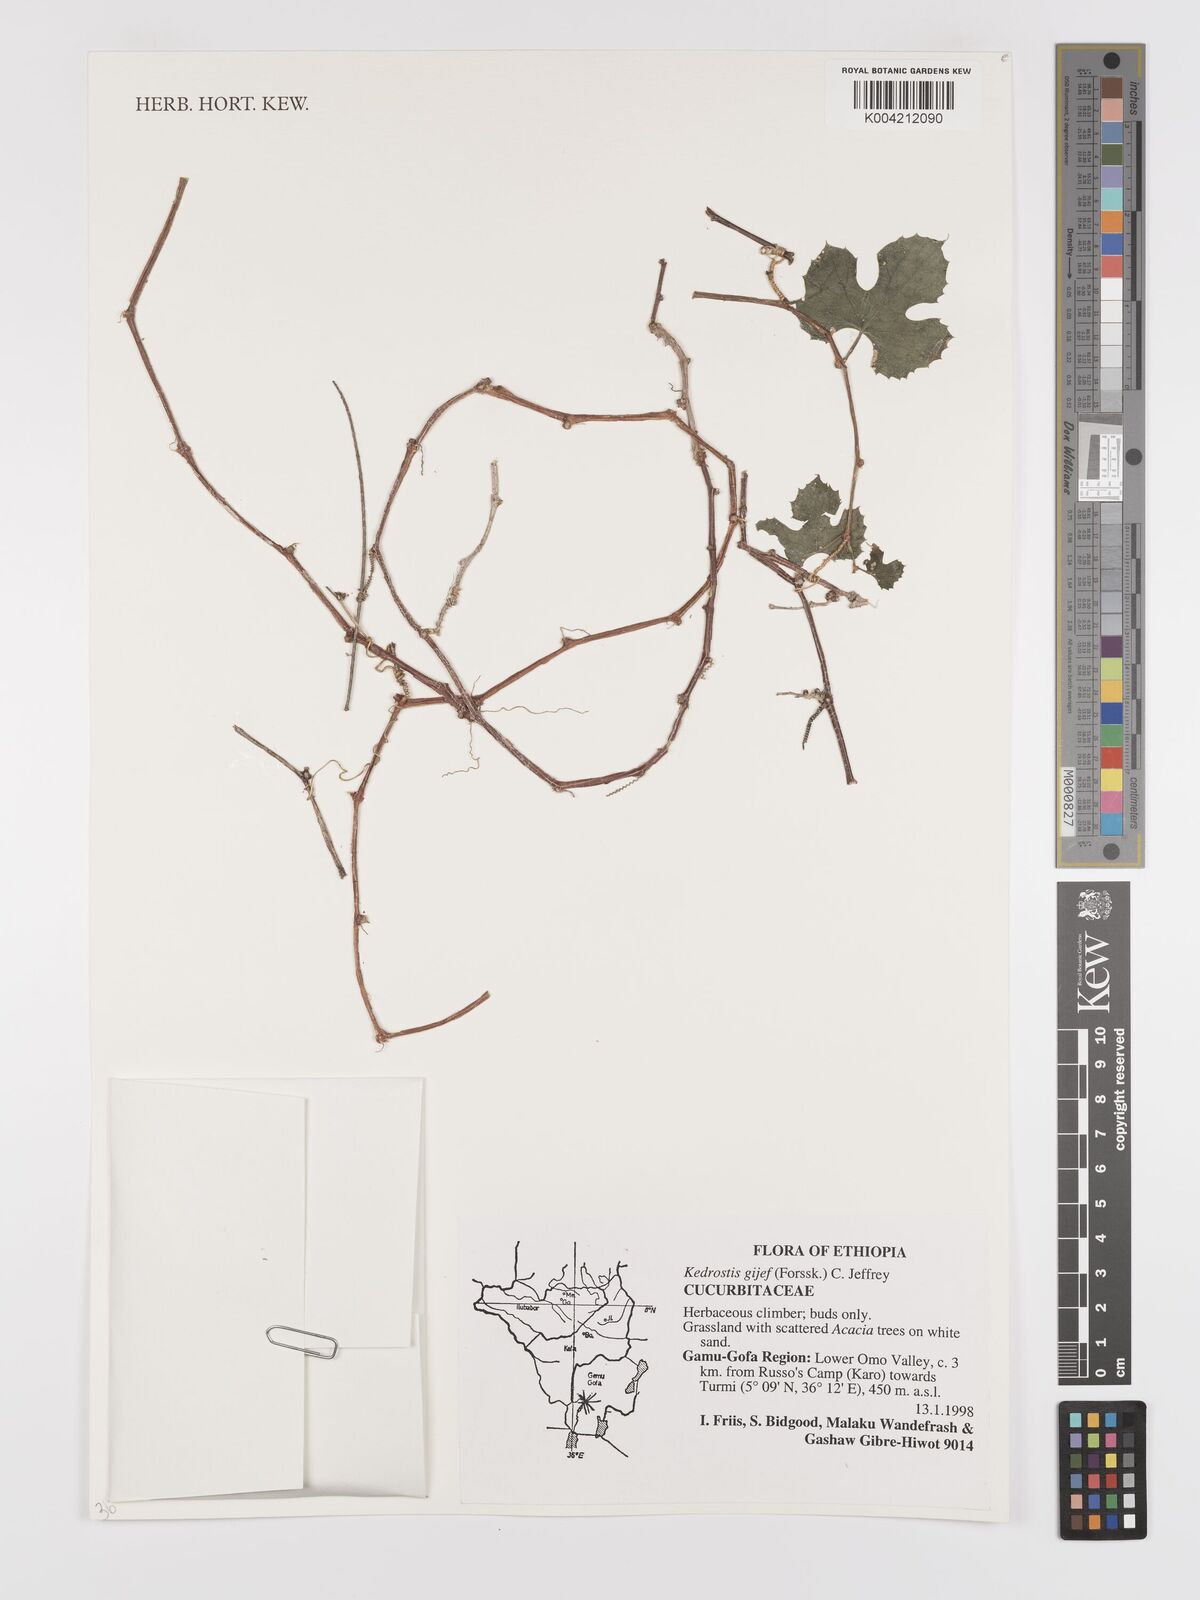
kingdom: Plantae
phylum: Tracheophyta
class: Magnoliopsida
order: Cucurbitales
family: Cucurbitaceae
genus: Kedrostis
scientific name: Kedrostis gijef
